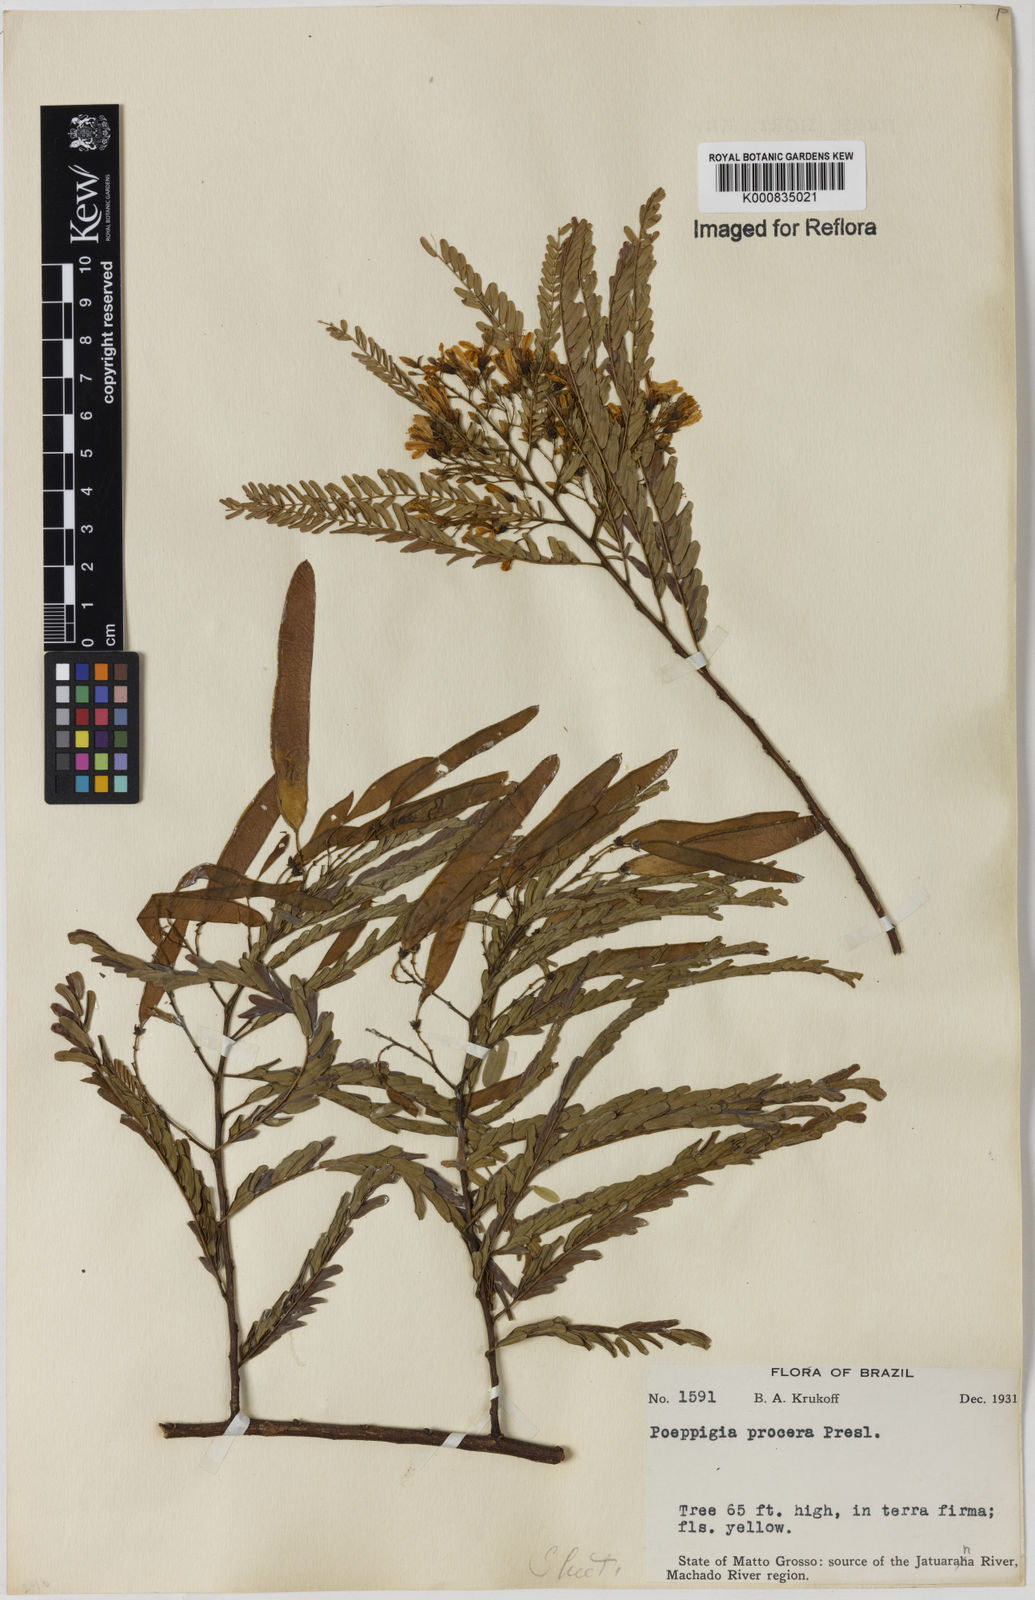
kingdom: Plantae
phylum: Tracheophyta
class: Magnoliopsida
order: Fabales
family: Fabaceae
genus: Poeppigia
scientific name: Poeppigia procera
